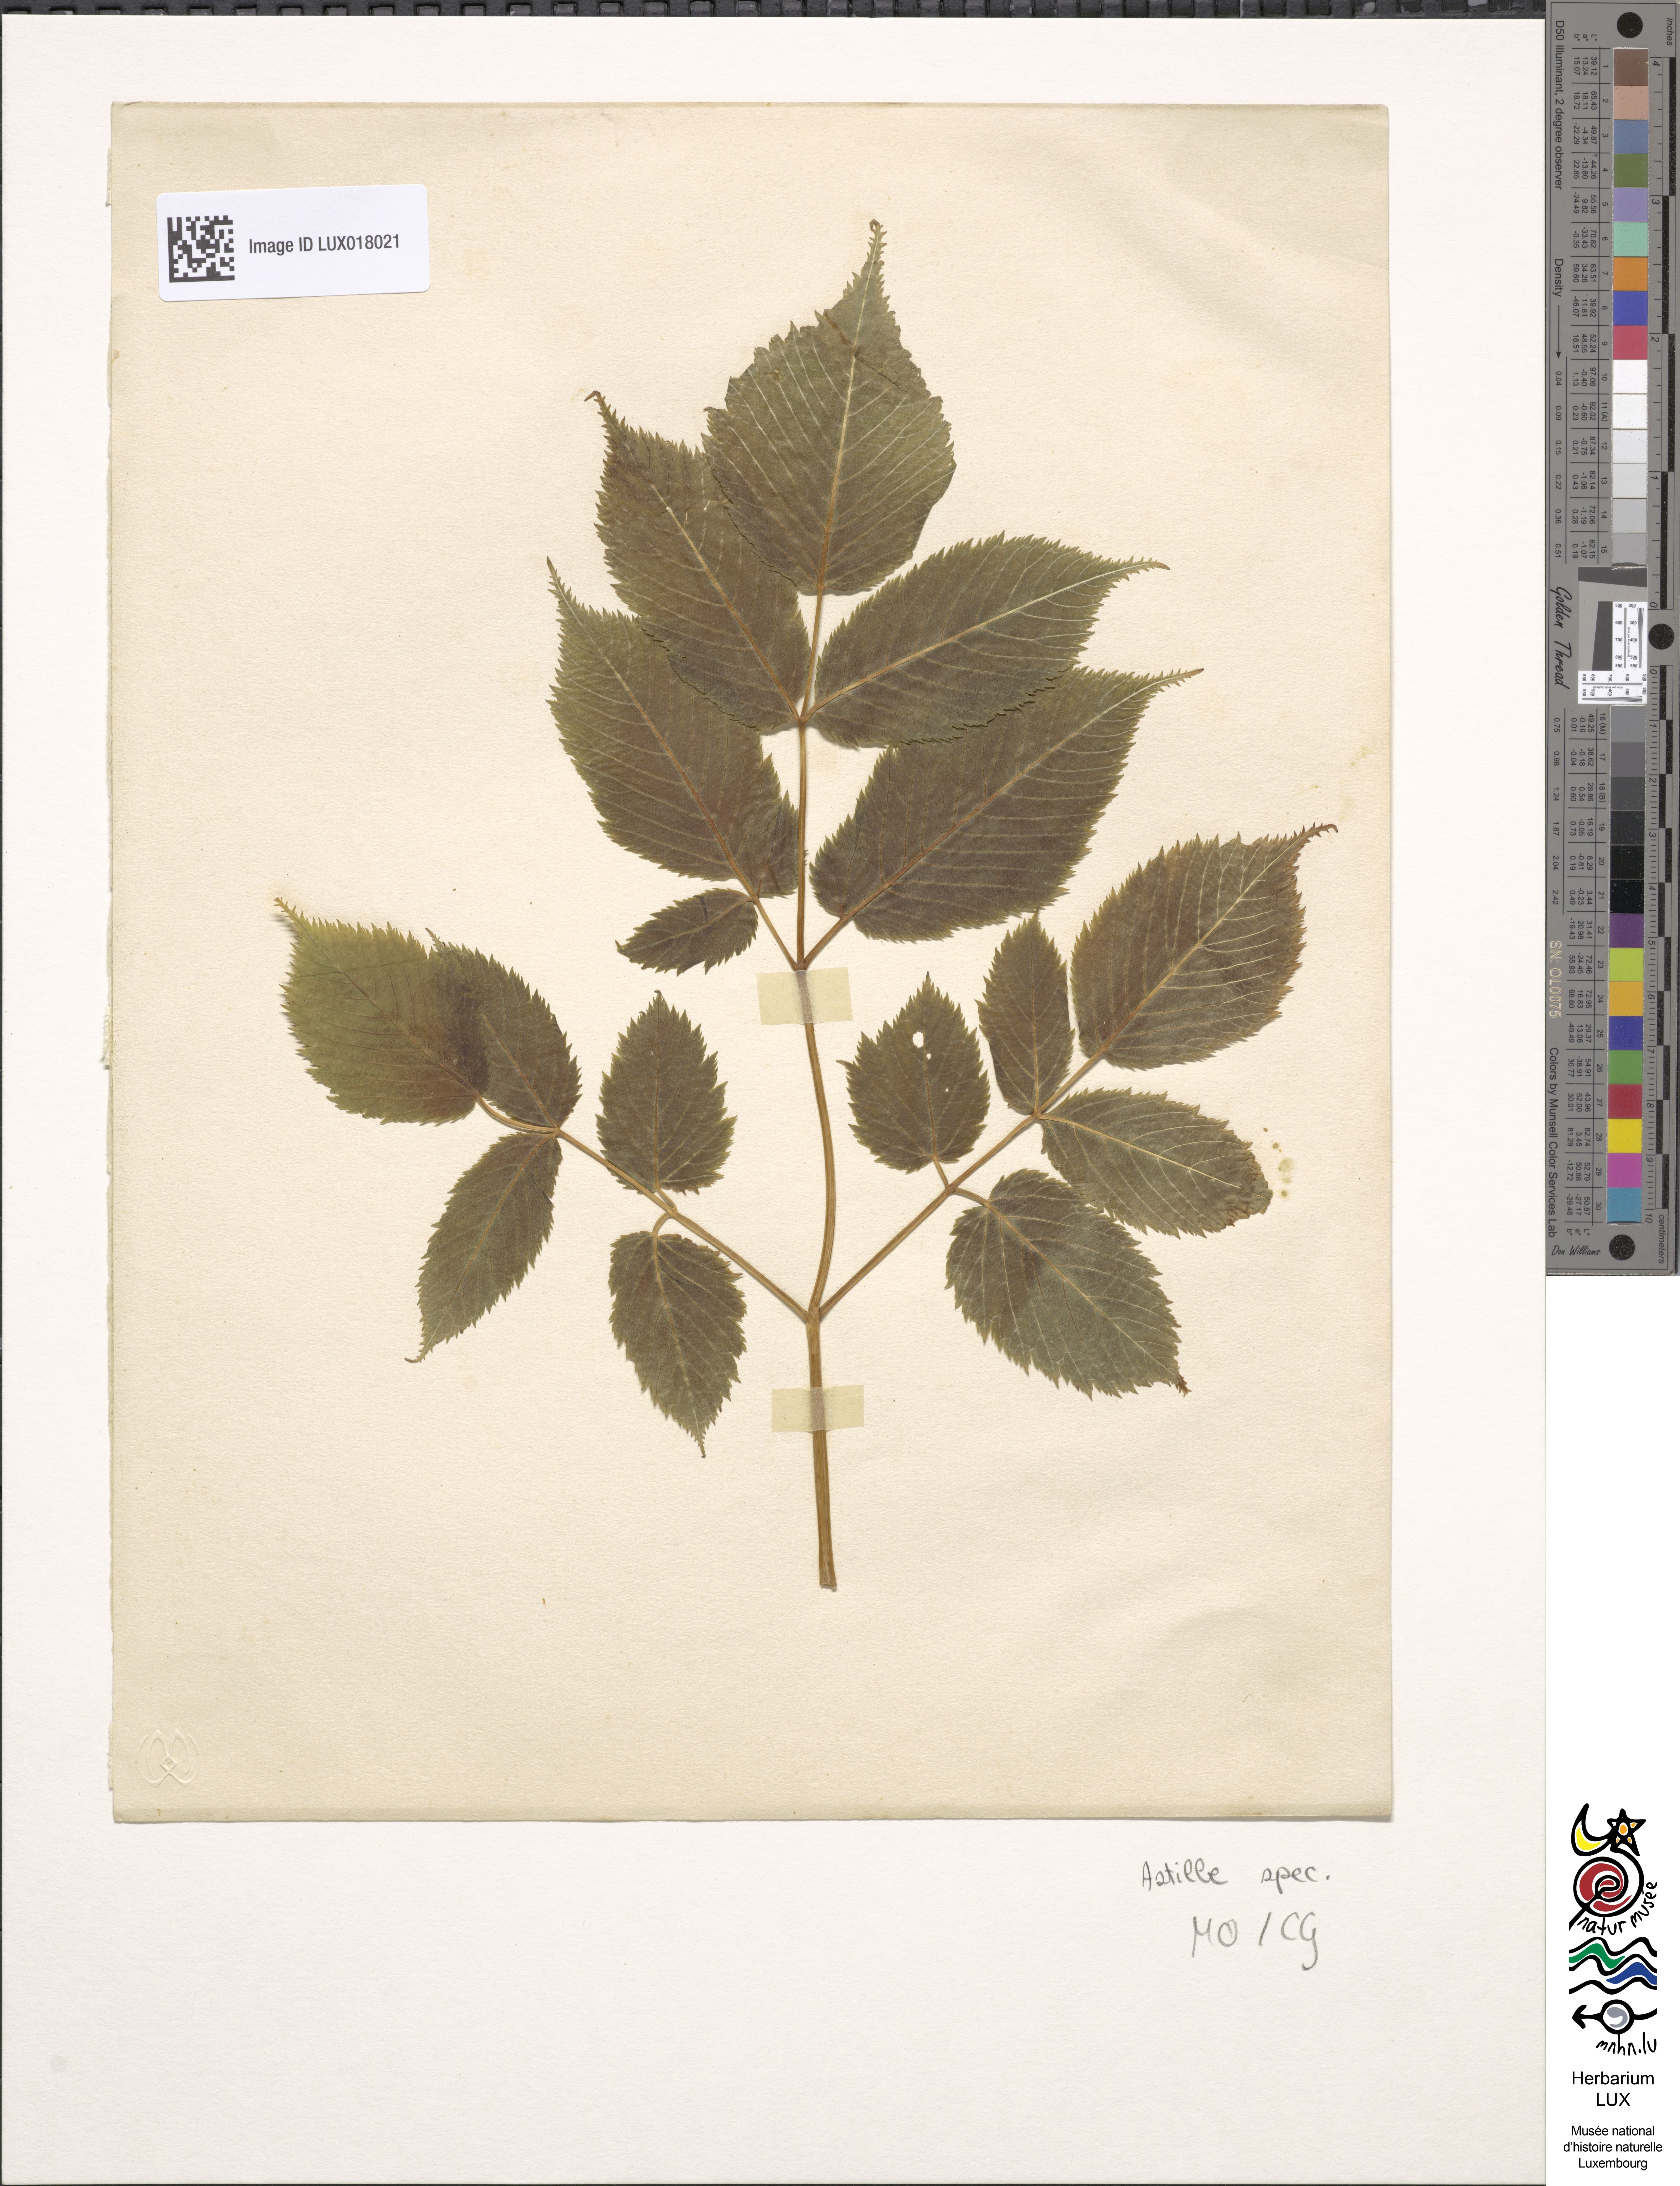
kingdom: Plantae
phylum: Tracheophyta
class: Magnoliopsida
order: Saxifragales
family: Saxifragaceae
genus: Astilbe
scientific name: Astilbe
